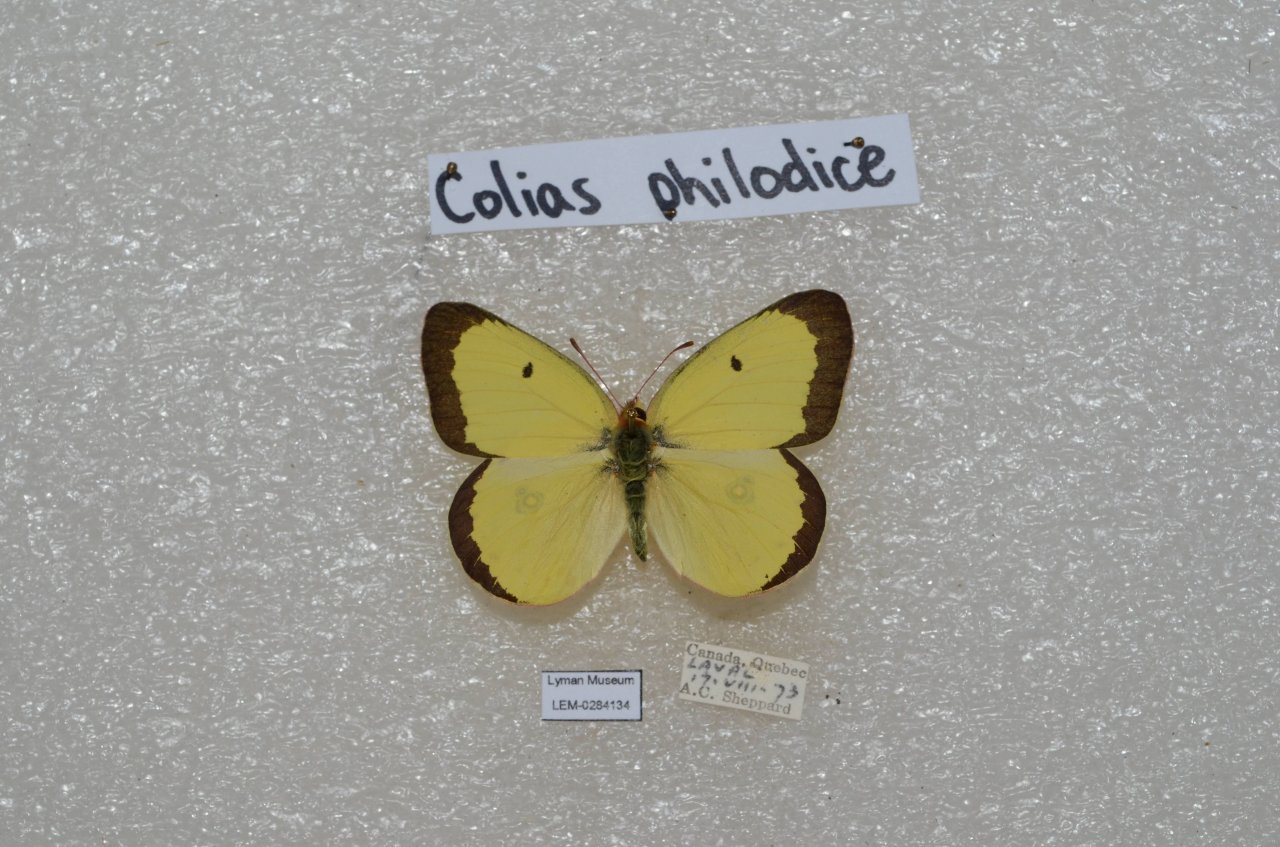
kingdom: Animalia
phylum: Arthropoda
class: Insecta
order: Lepidoptera
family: Pieridae
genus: Colias
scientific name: Colias philodice
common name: Clouded Sulphur
